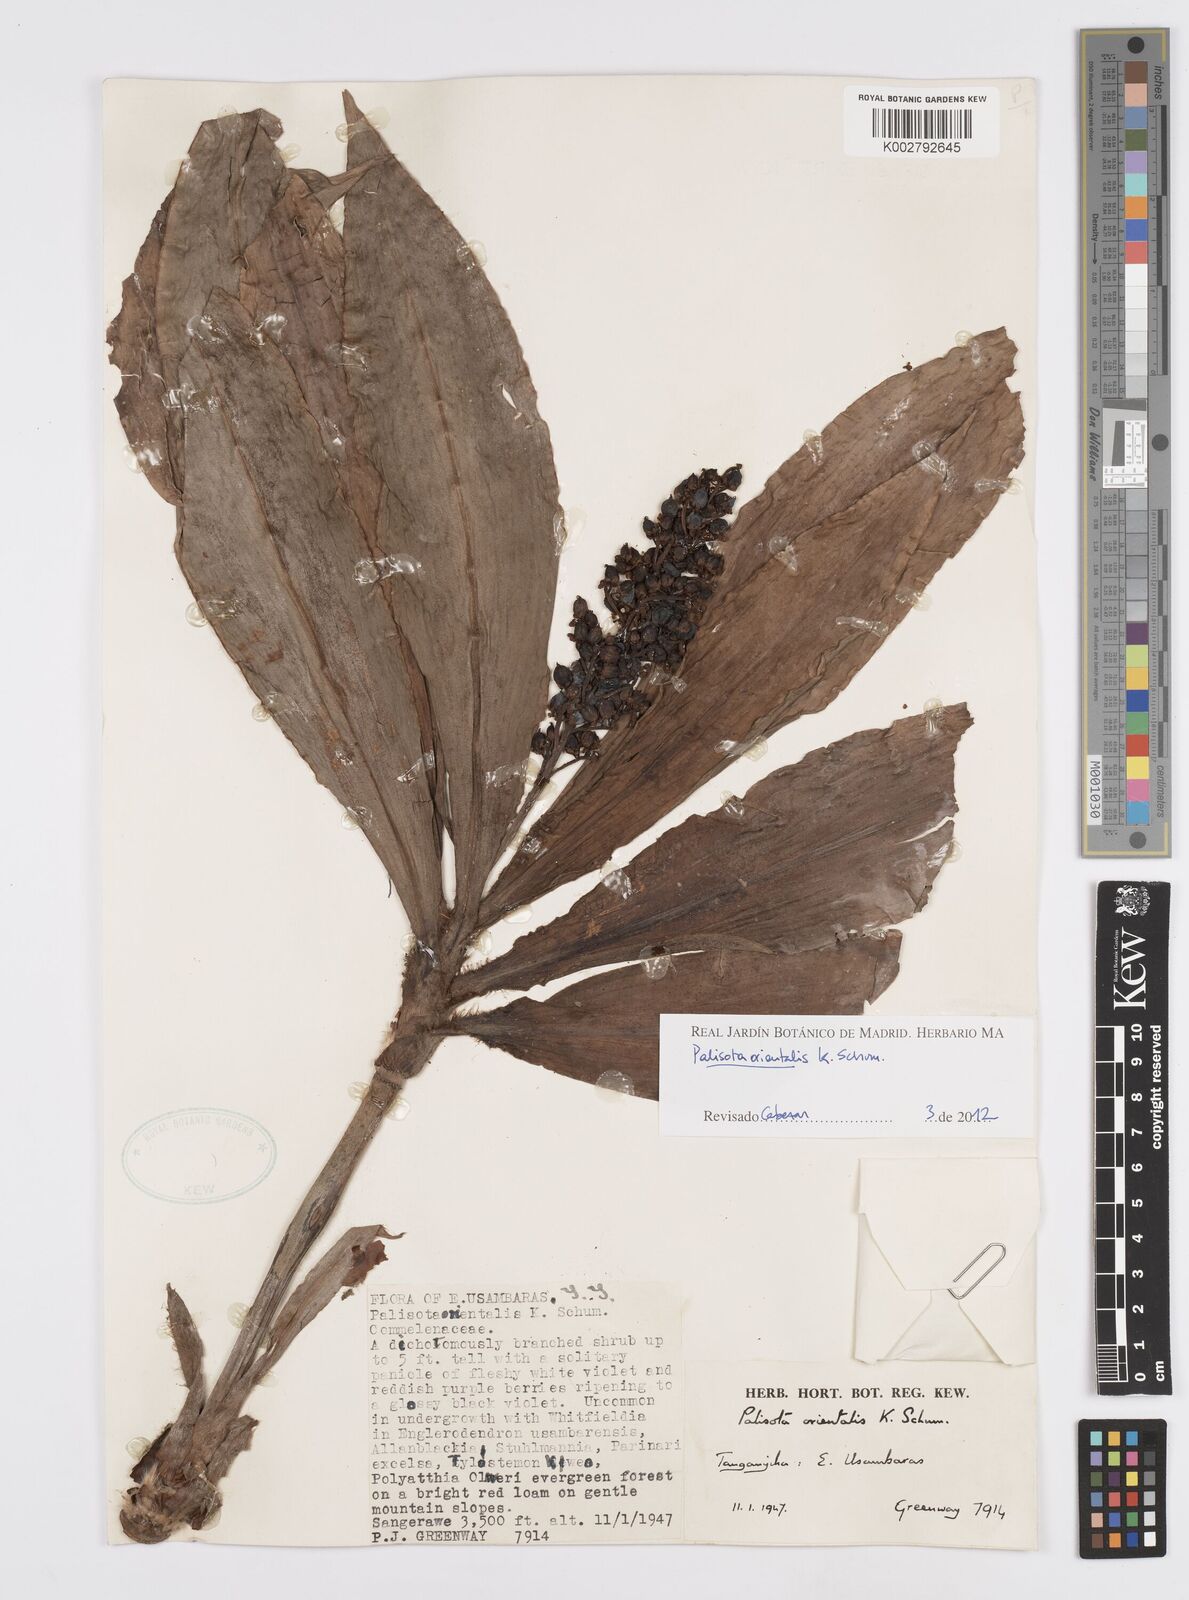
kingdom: Plantae
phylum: Tracheophyta
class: Liliopsida
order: Commelinales
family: Commelinaceae
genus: Palisota
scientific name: Palisota orientalis
